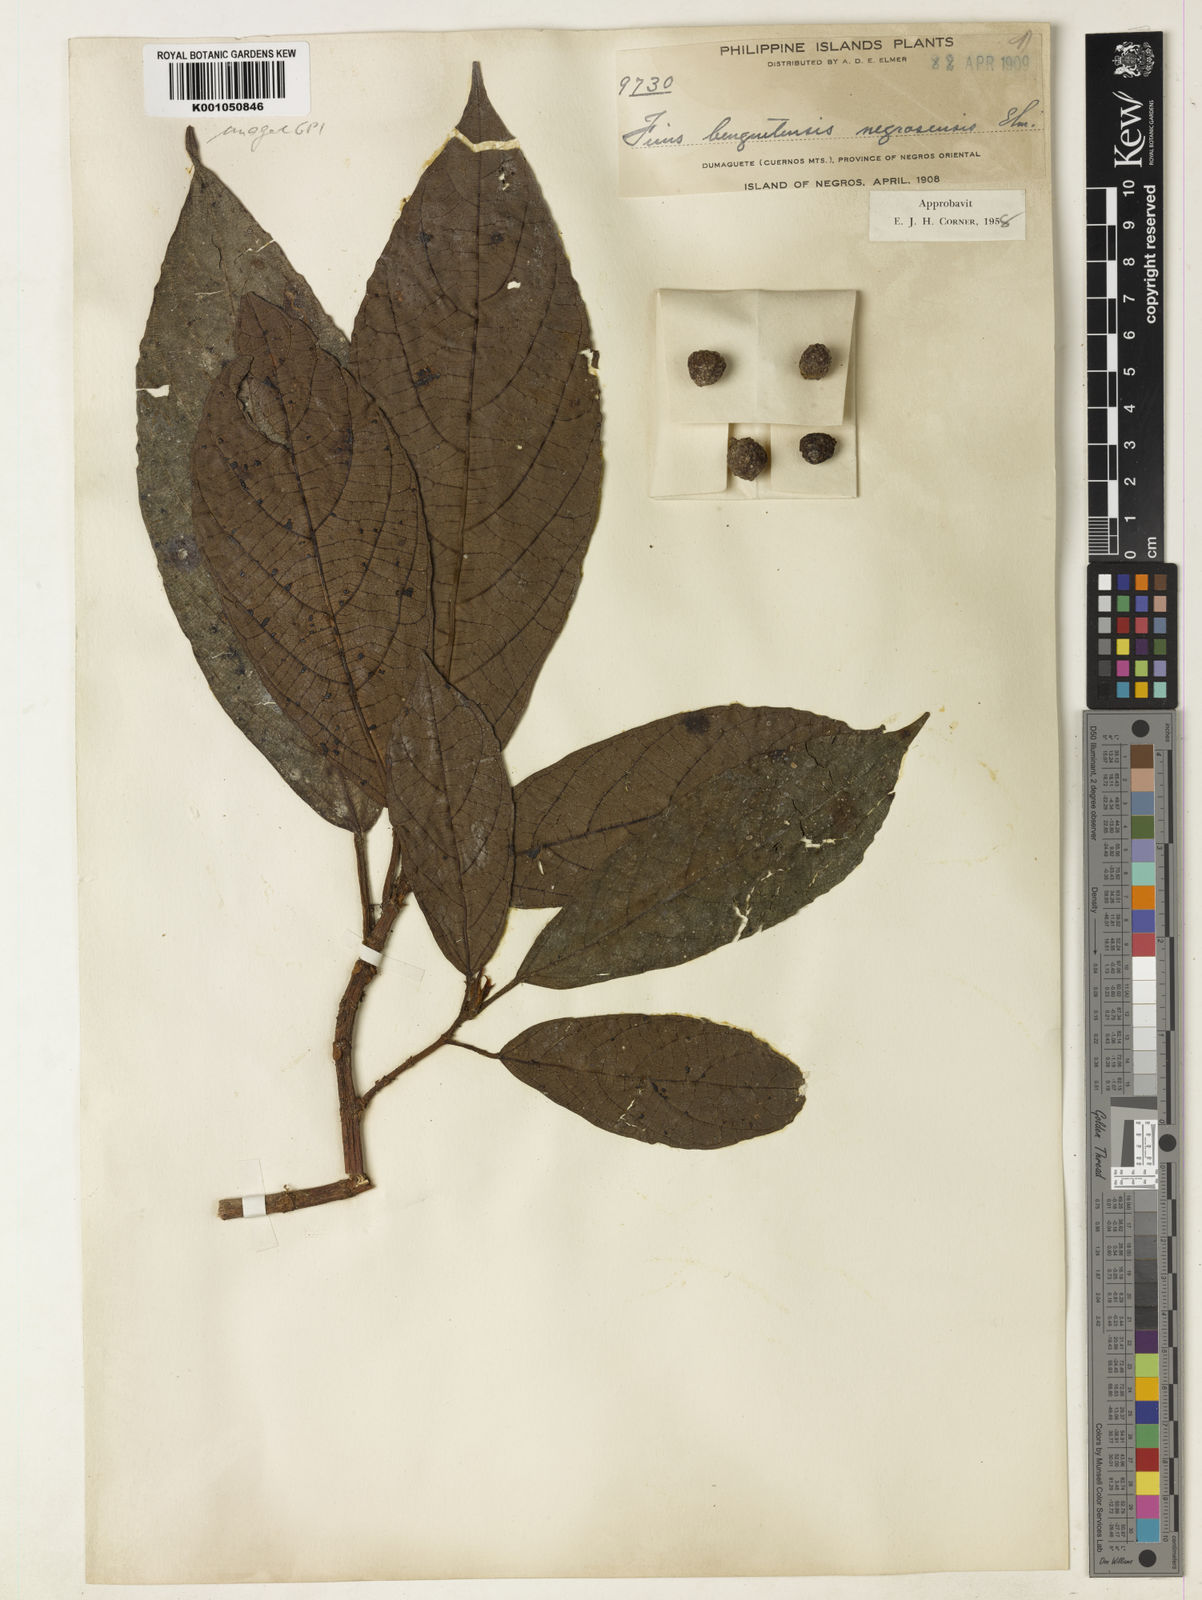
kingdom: Plantae
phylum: Tracheophyta
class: Magnoliopsida
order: Rosales
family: Moraceae
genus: Ficus
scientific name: Ficus benguetensis
